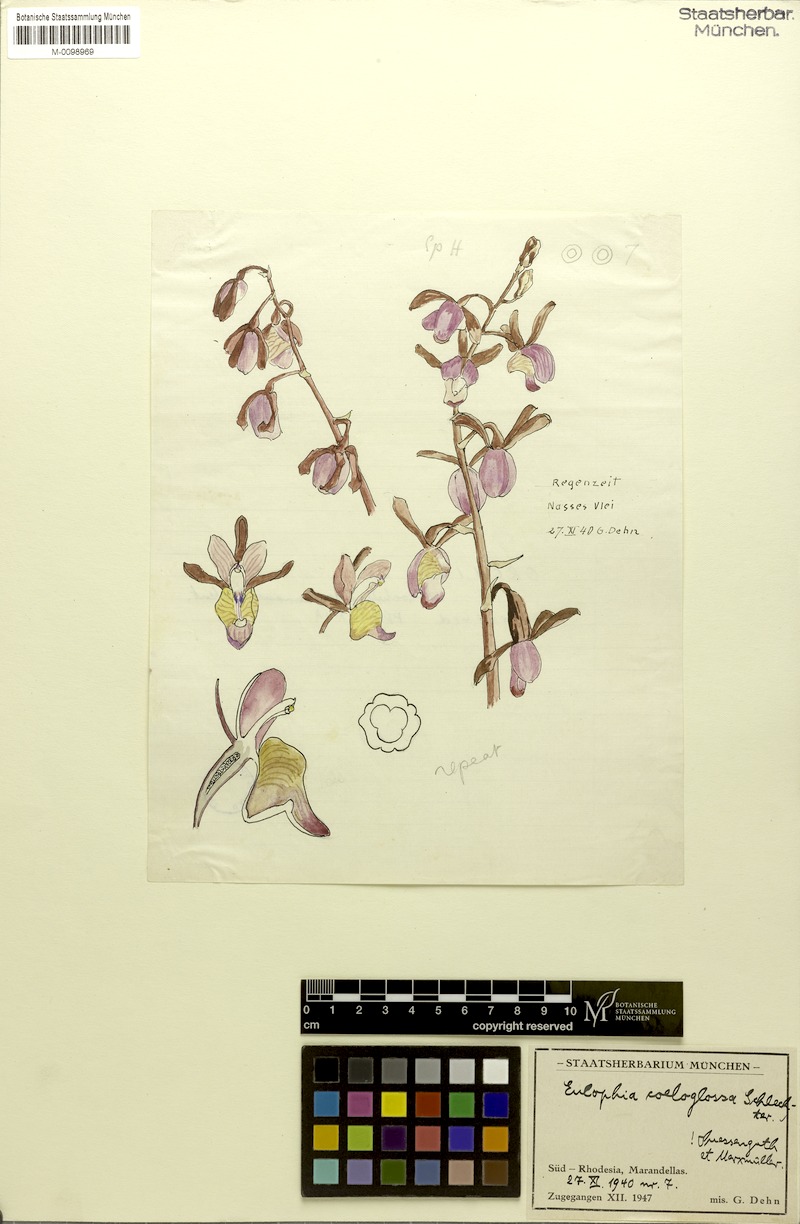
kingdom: Plantae
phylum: Tracheophyta
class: Liliopsida
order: Asparagales
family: Orchidaceae
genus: Eulophia
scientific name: Eulophia coeloglossa
